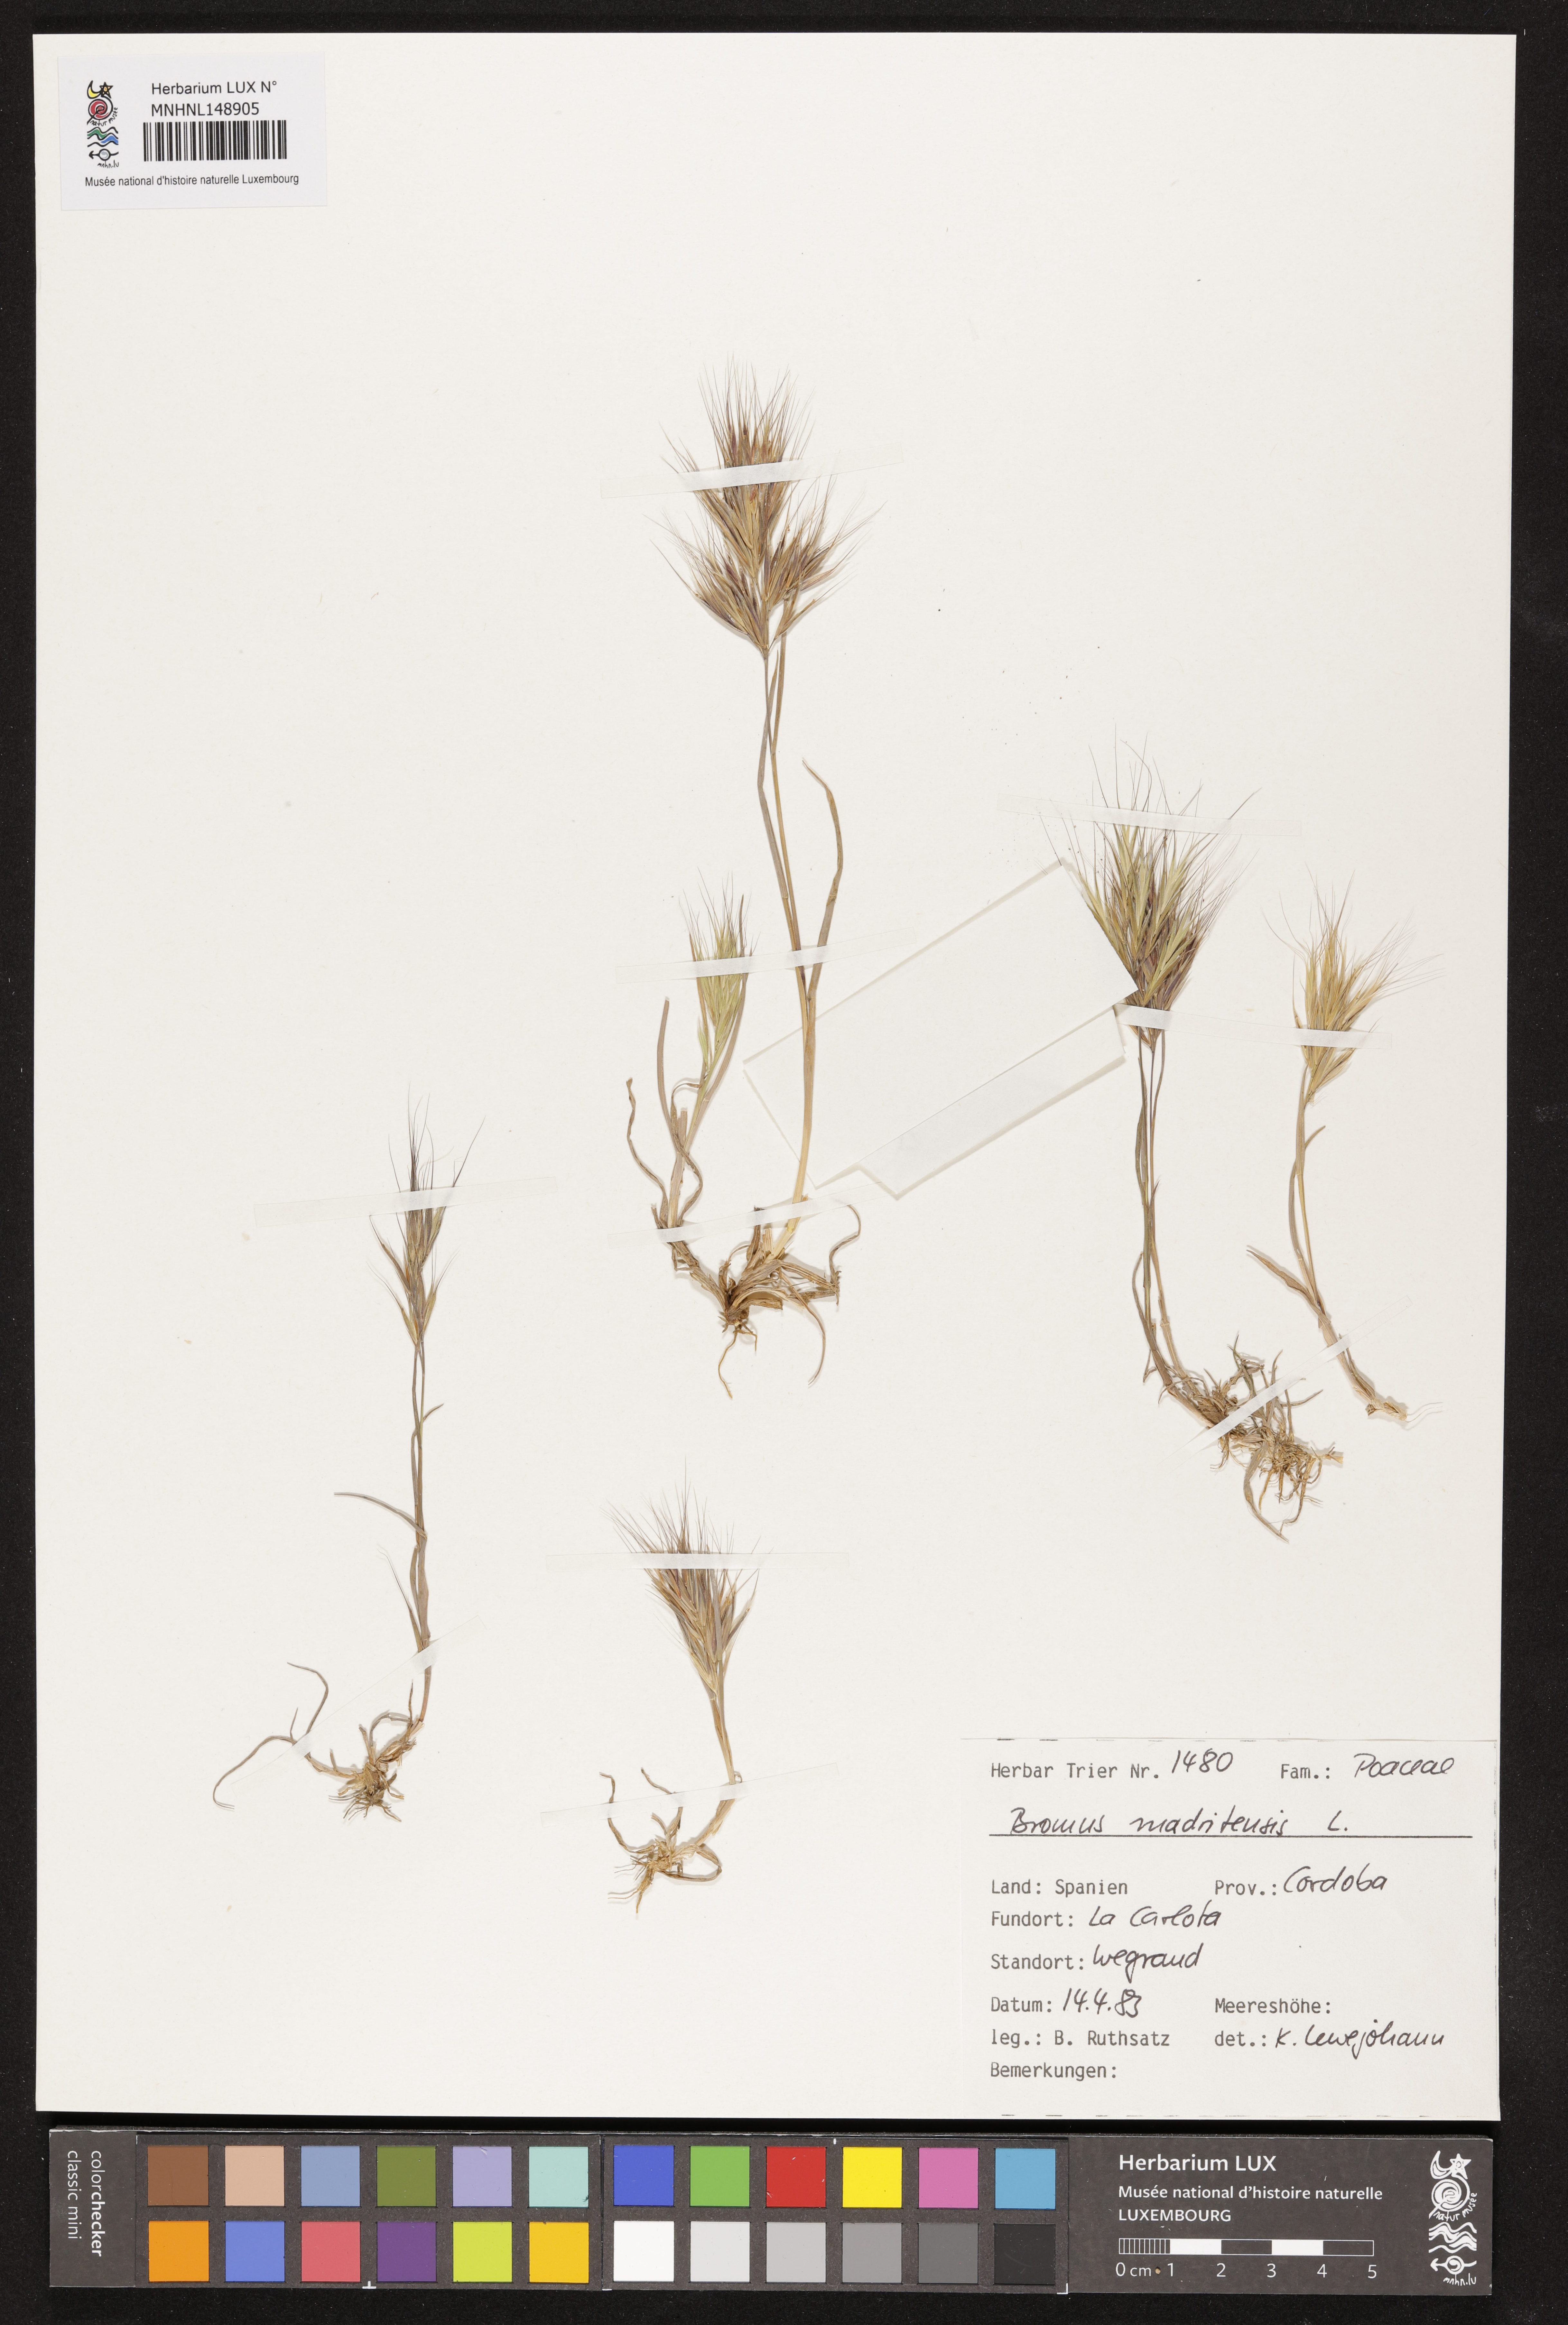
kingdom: Plantae
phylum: Tracheophyta
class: Liliopsida
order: Poales
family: Poaceae
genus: Bromus
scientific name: Bromus madritensis
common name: Compact brome
